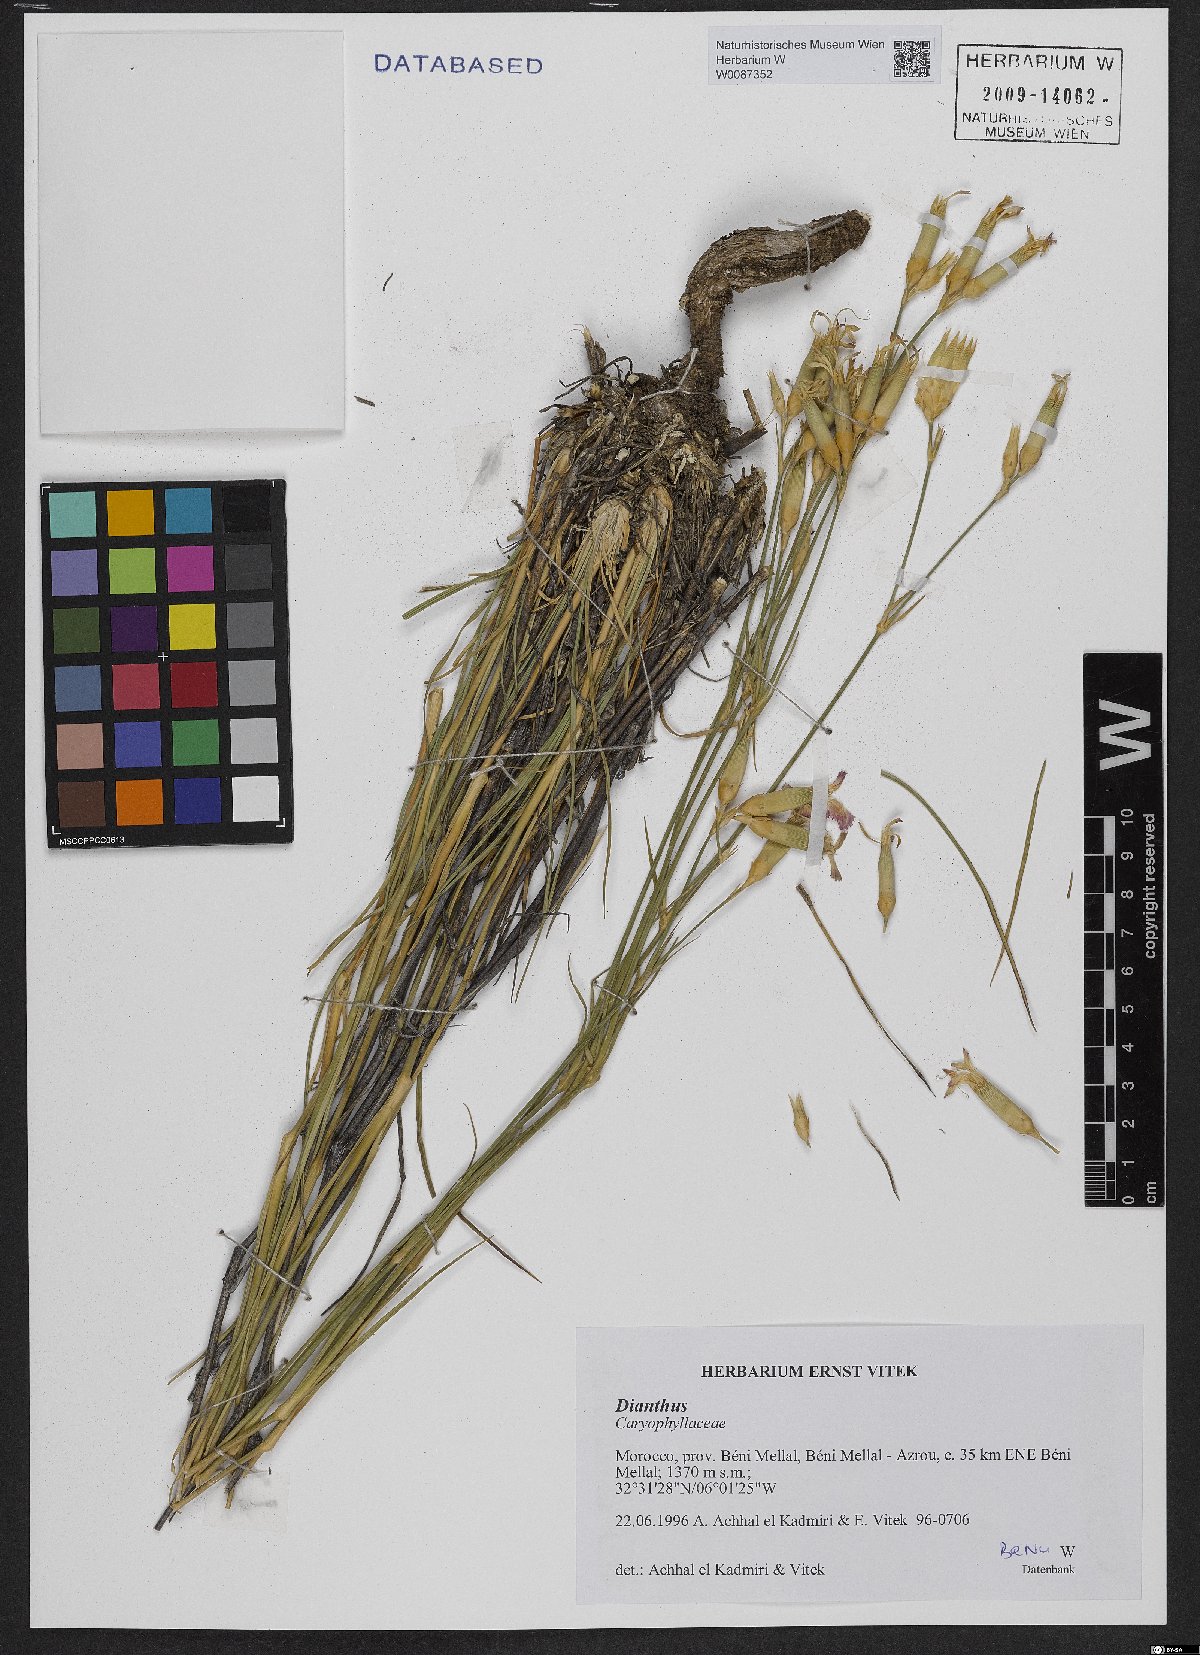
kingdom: Plantae
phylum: Tracheophyta
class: Magnoliopsida
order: Caryophyllales
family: Caryophyllaceae
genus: Dianthus
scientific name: Dianthus
